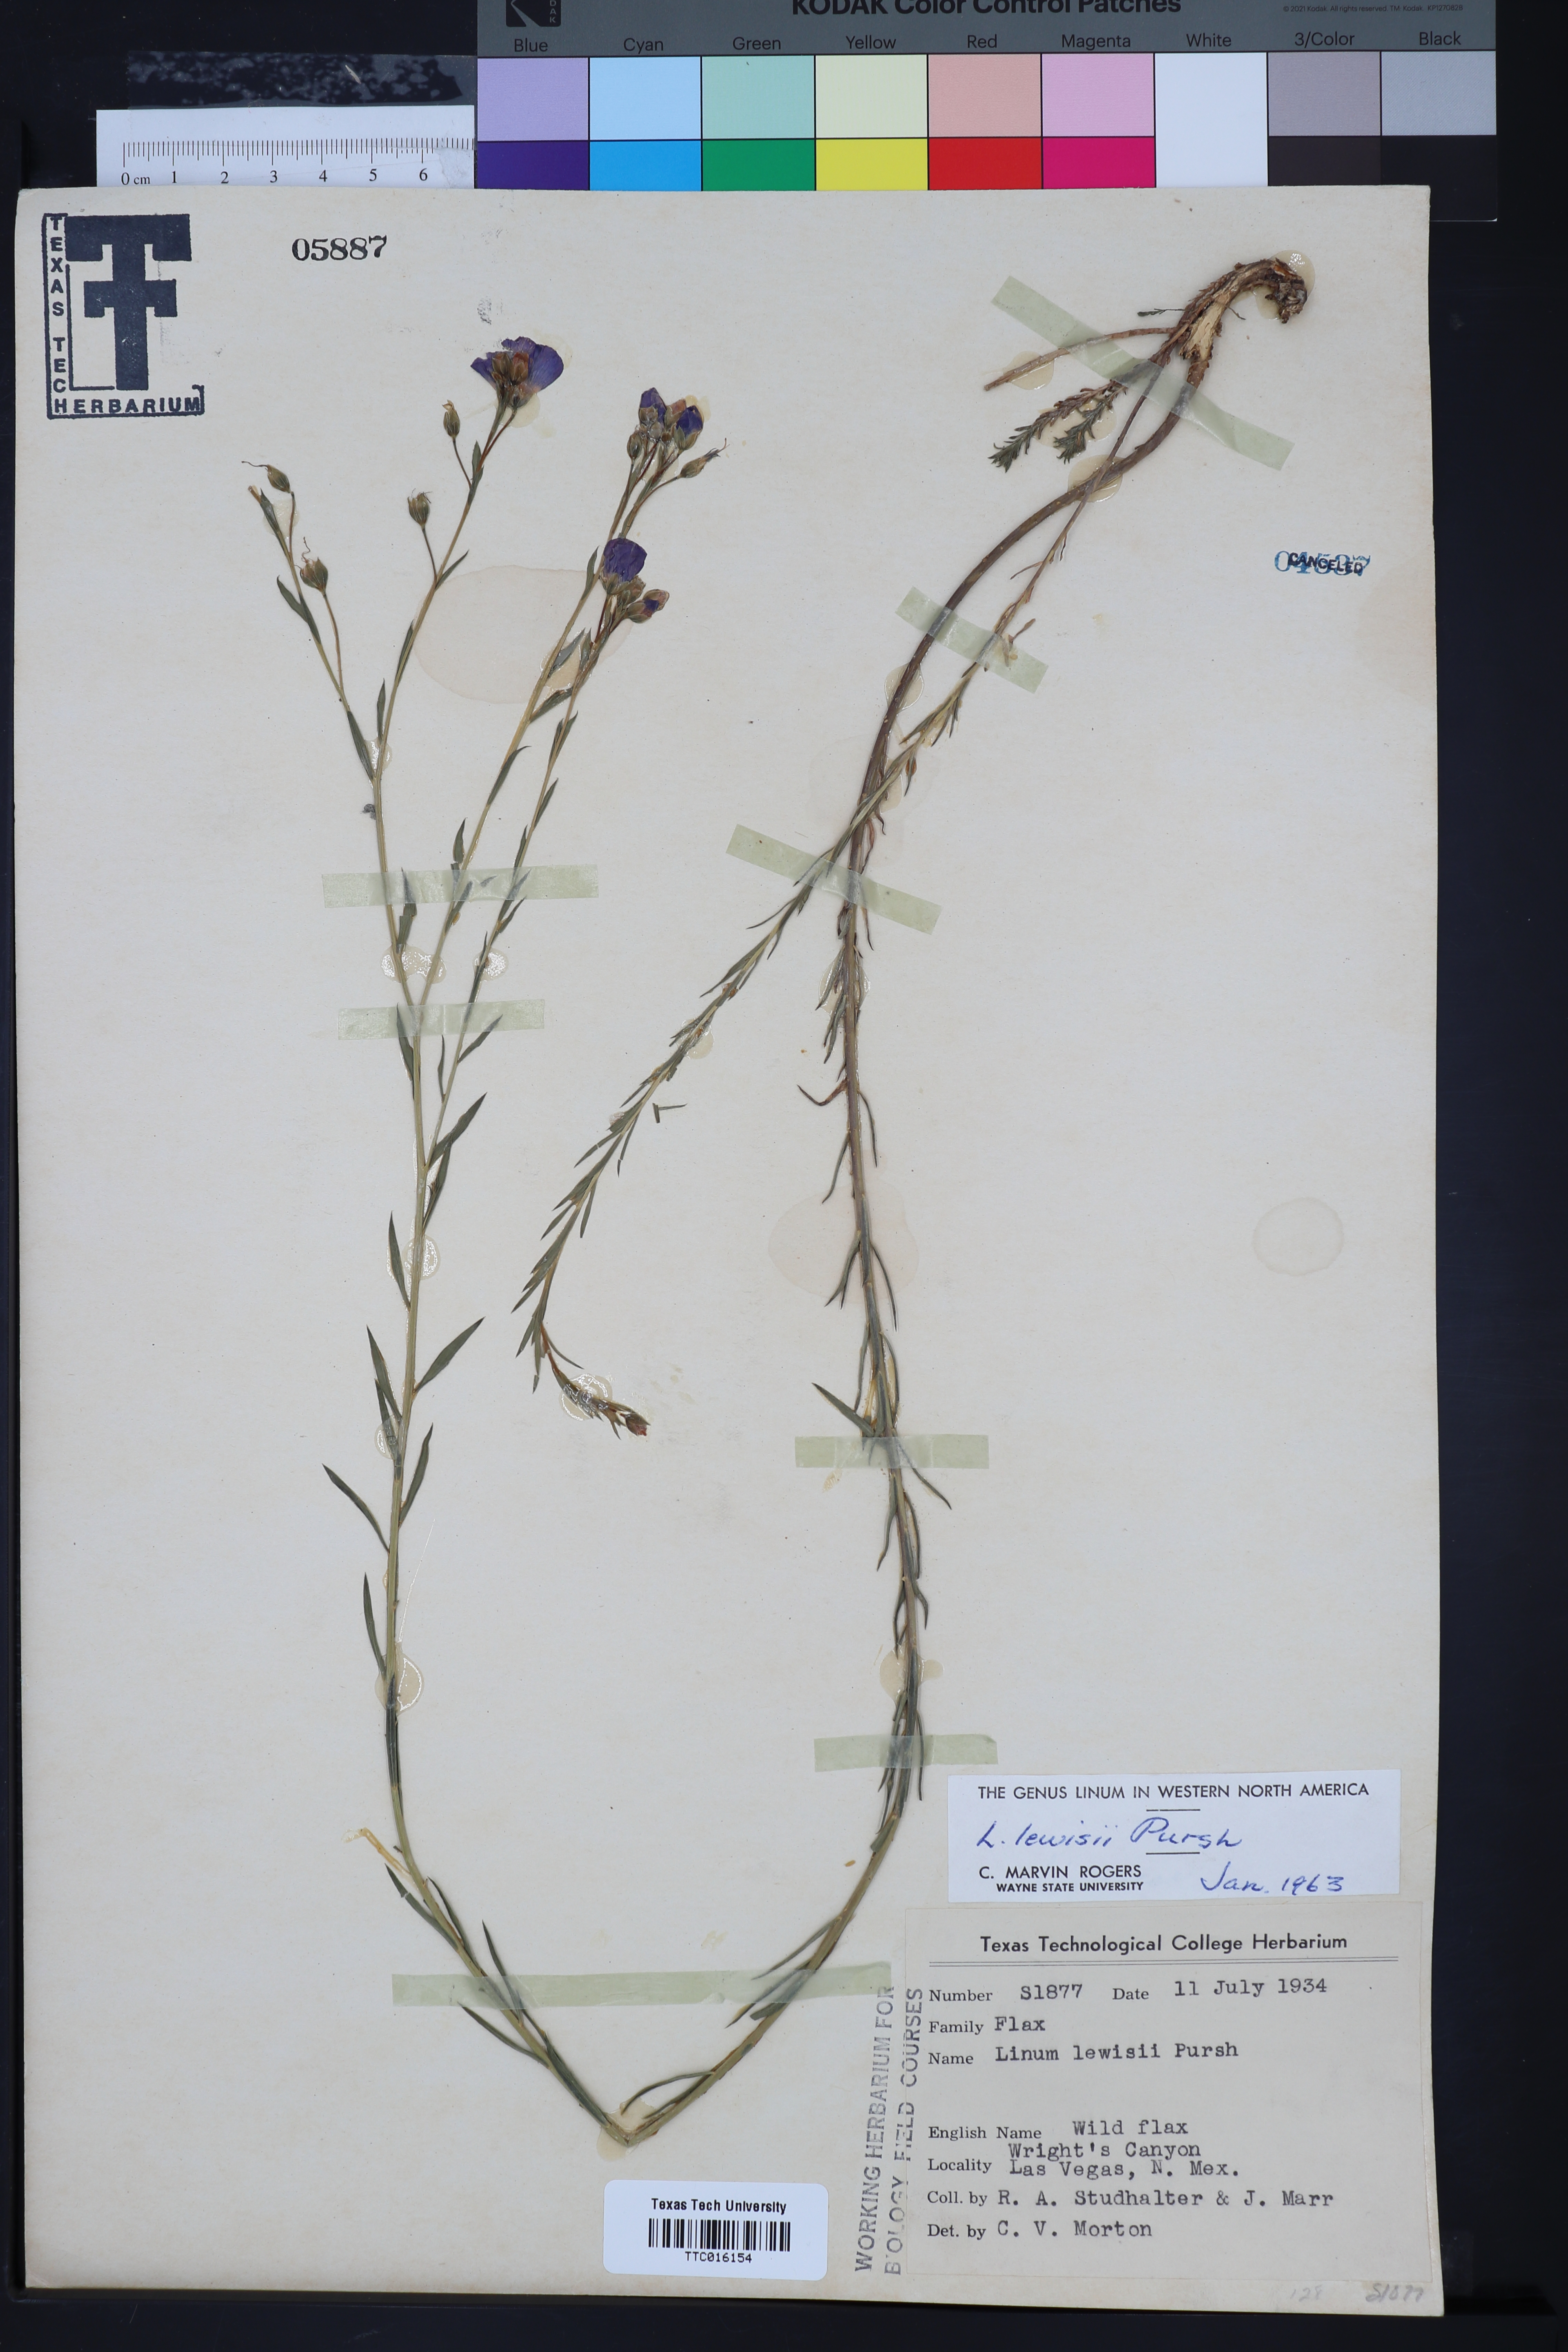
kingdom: Plantae
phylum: Tracheophyta
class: Magnoliopsida
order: Malpighiales
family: Linaceae
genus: Linum
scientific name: Linum lewisii
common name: Prairie flax
